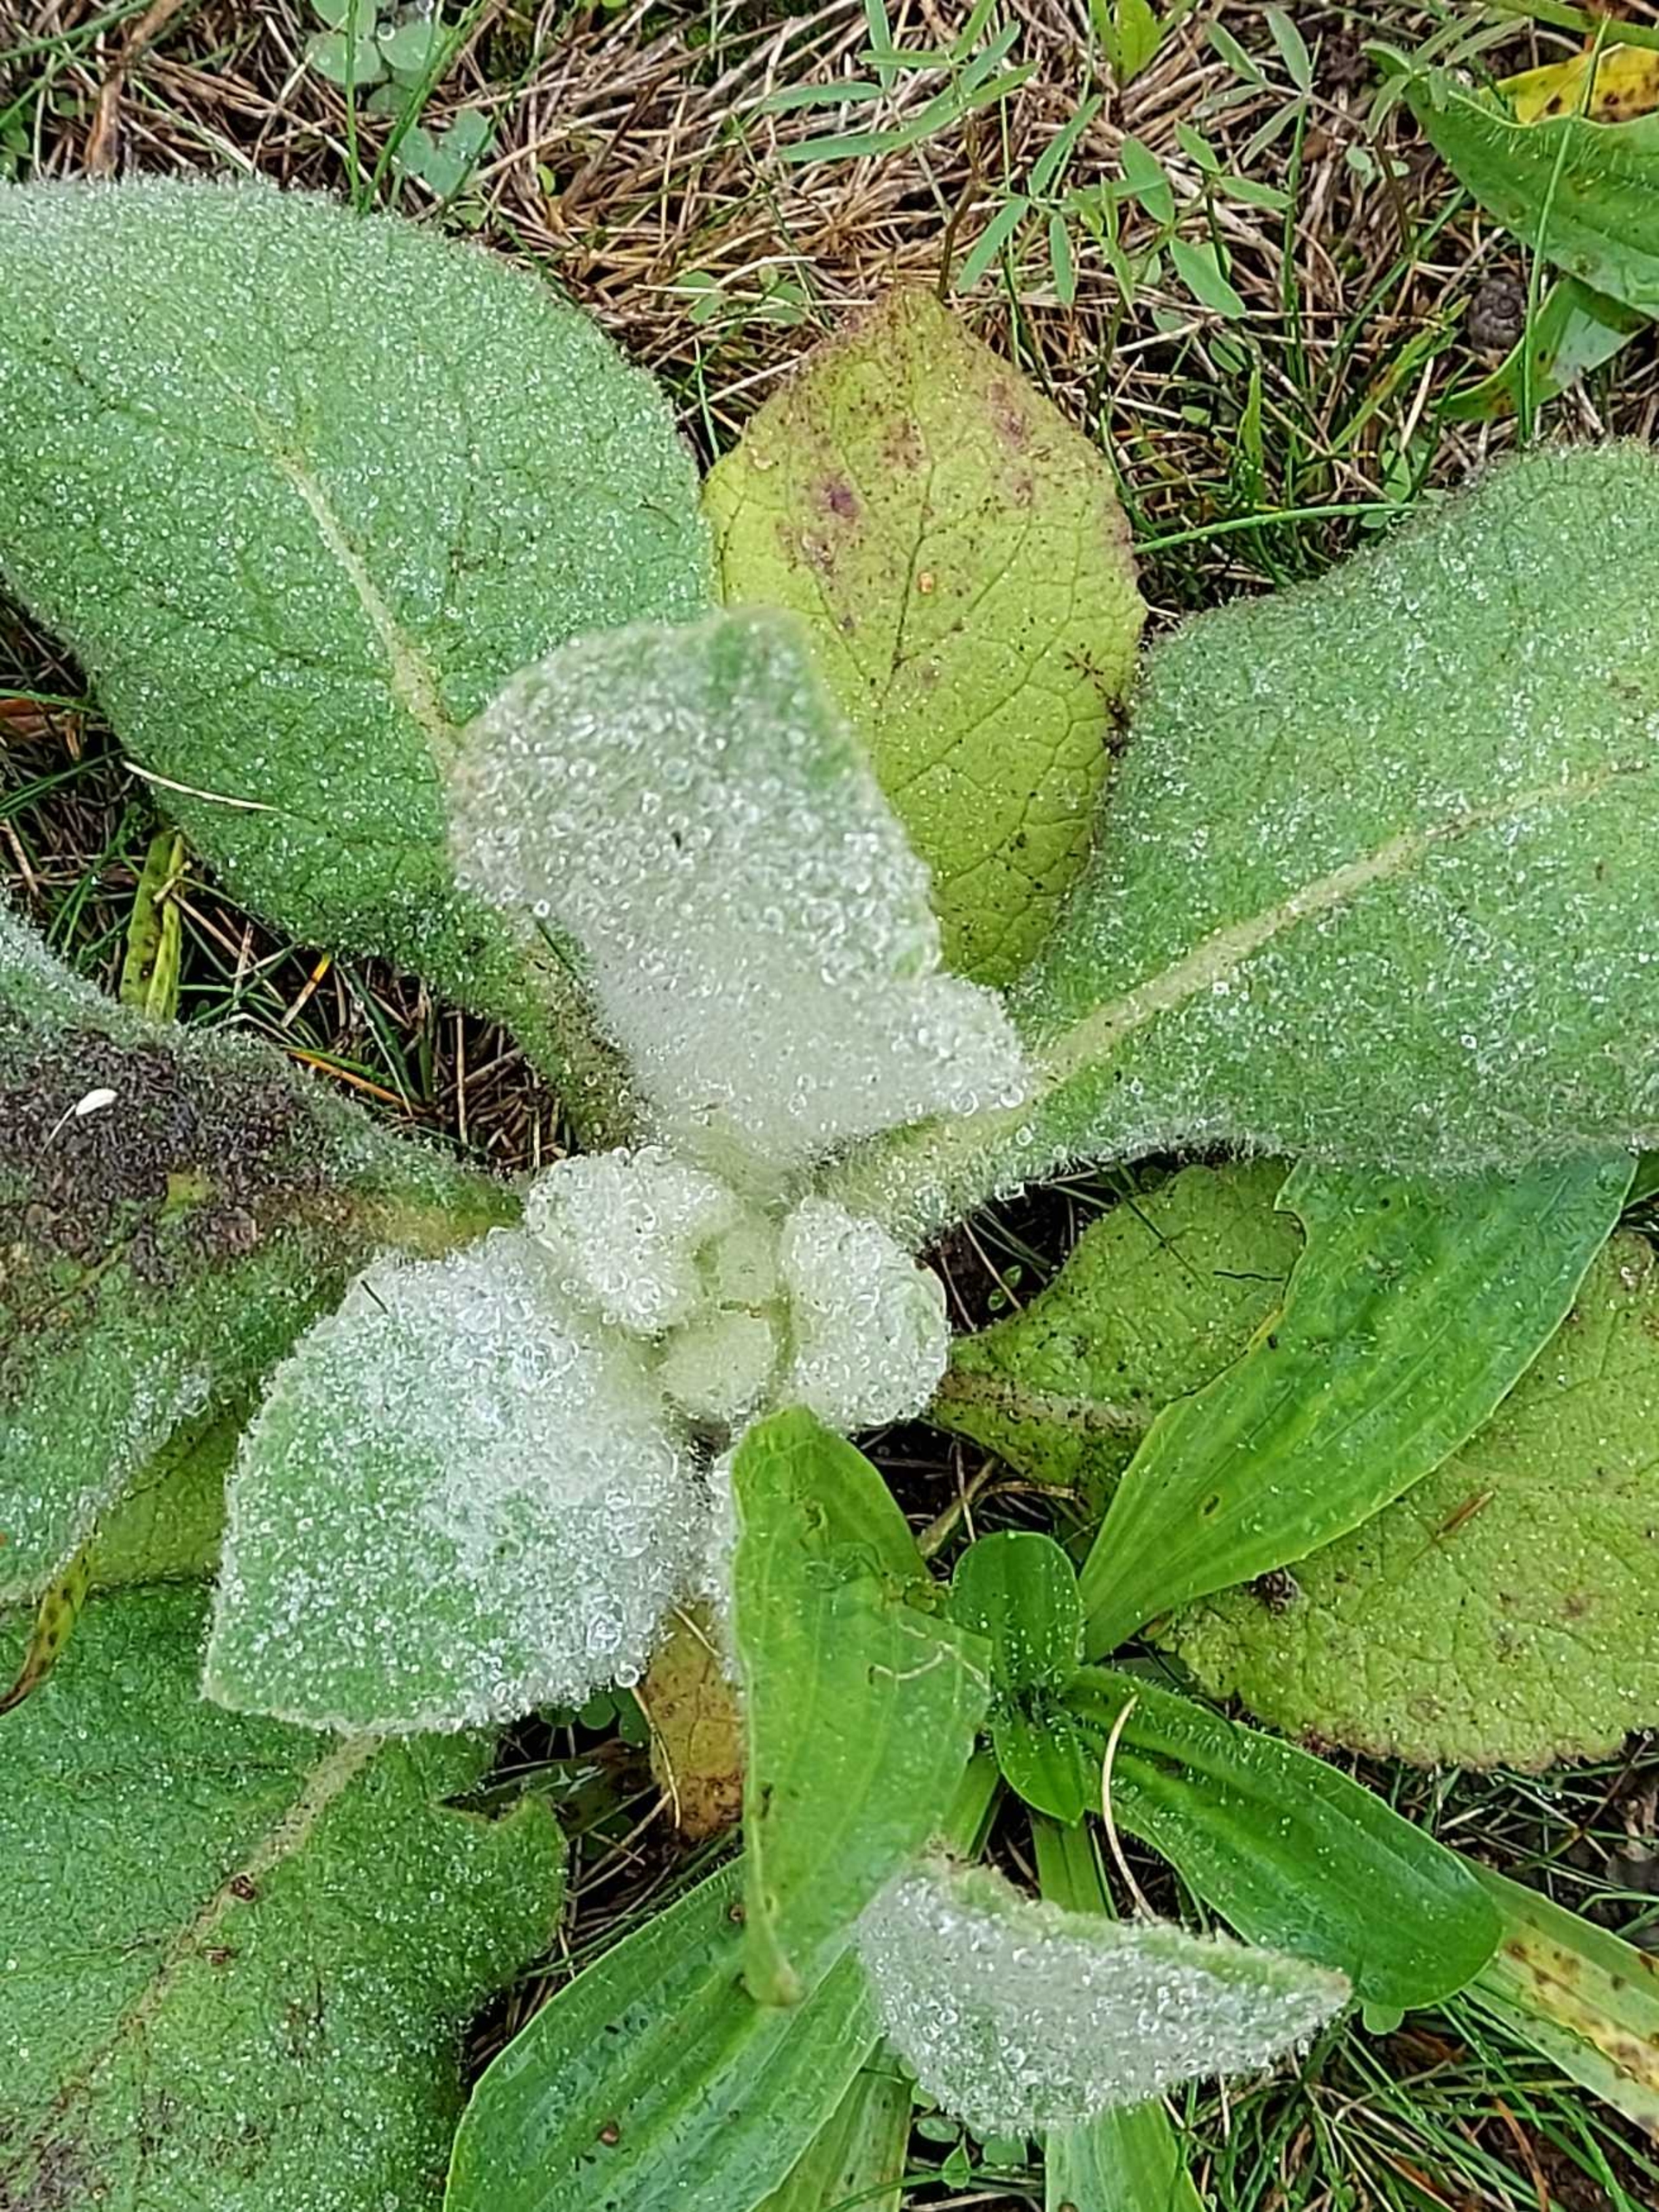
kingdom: Plantae
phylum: Tracheophyta
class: Magnoliopsida
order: Lamiales
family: Scrophulariaceae
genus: Verbascum
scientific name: Verbascum
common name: Kongelysslægten
